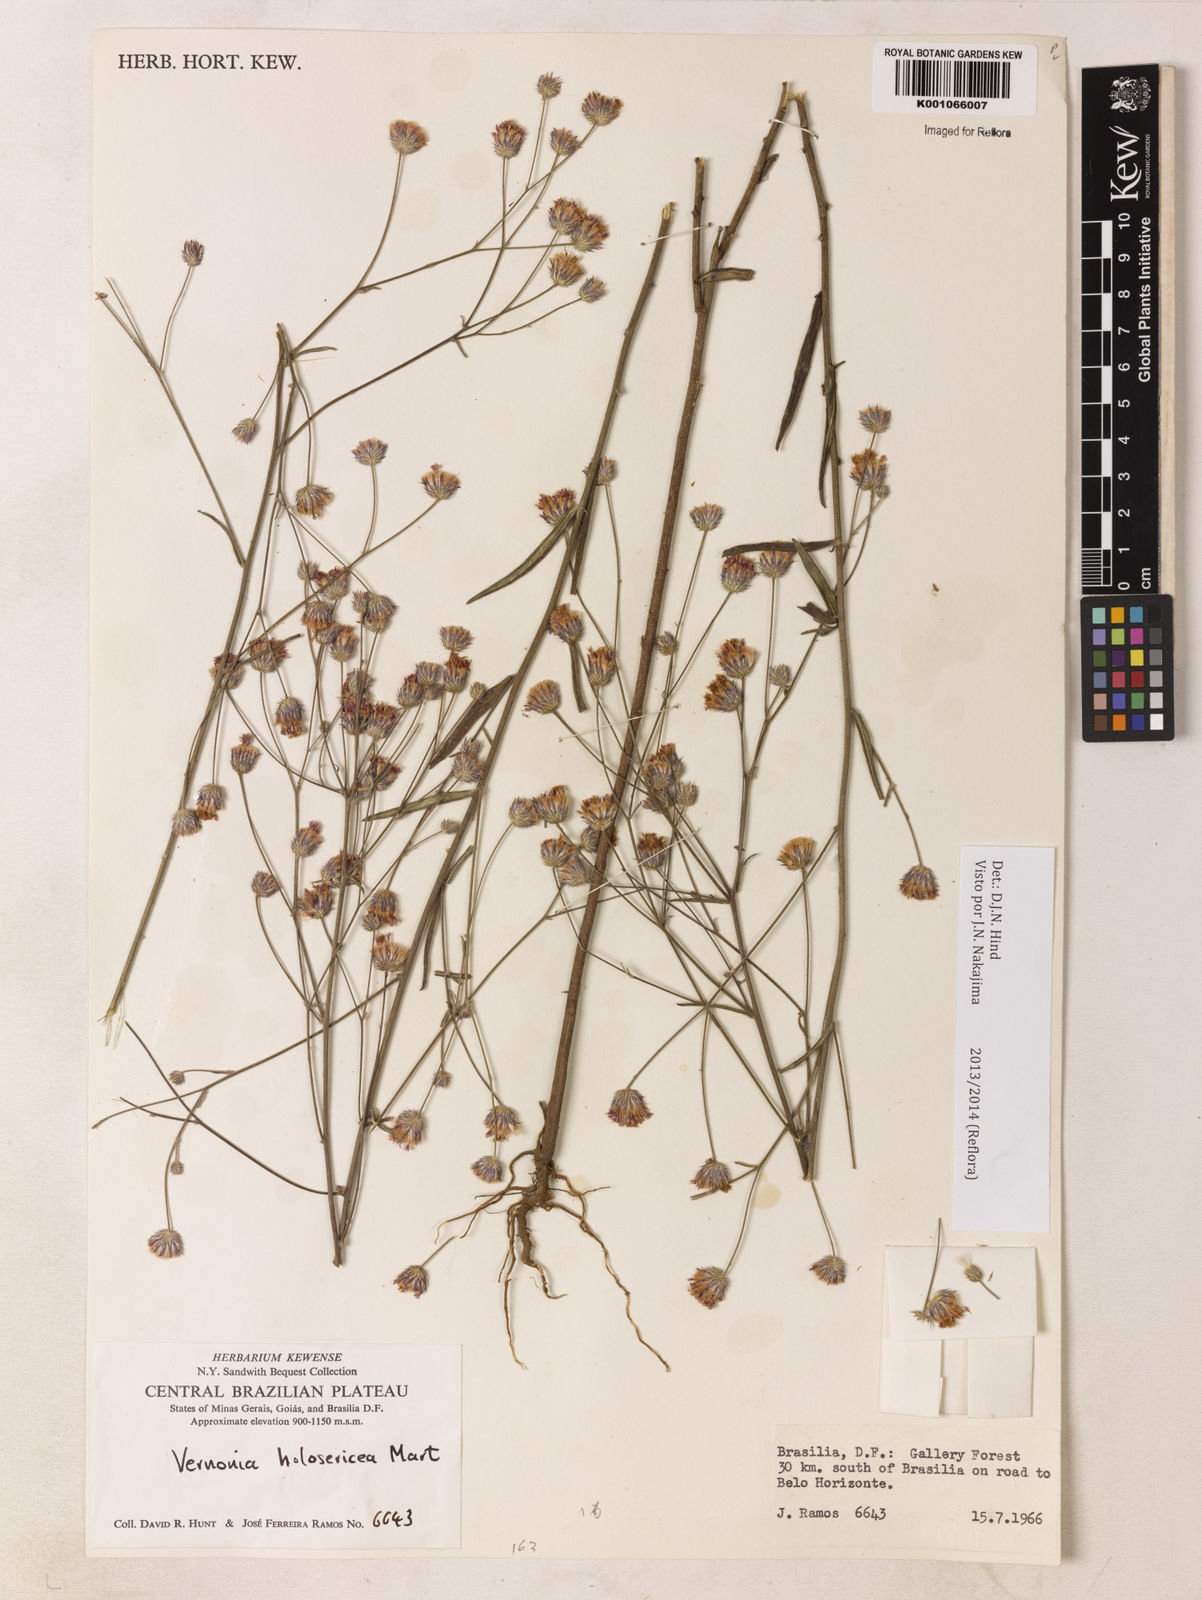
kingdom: Plantae
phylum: Tracheophyta
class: Magnoliopsida
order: Asterales
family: Asteraceae
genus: Echinocoryne
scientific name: Echinocoryne holosericea
